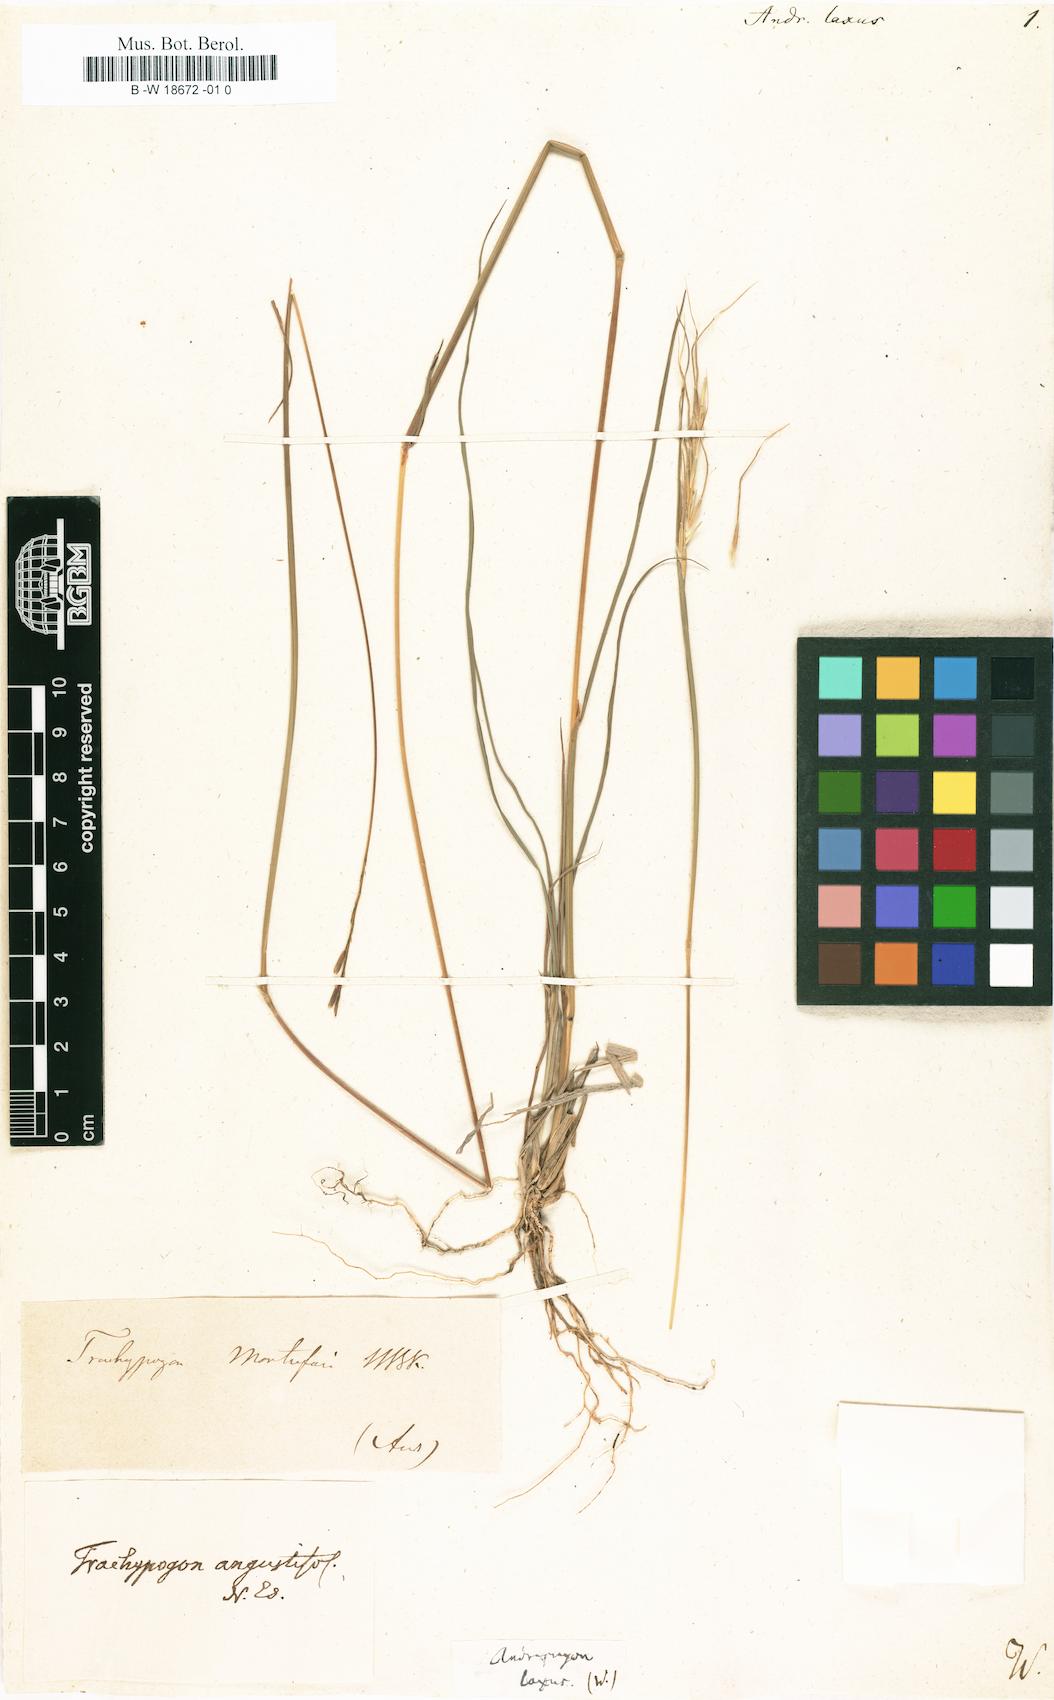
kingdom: Plantae
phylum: Tracheophyta
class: Liliopsida
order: Poales
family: Poaceae
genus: Andropogon
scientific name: Andropogon laxus
